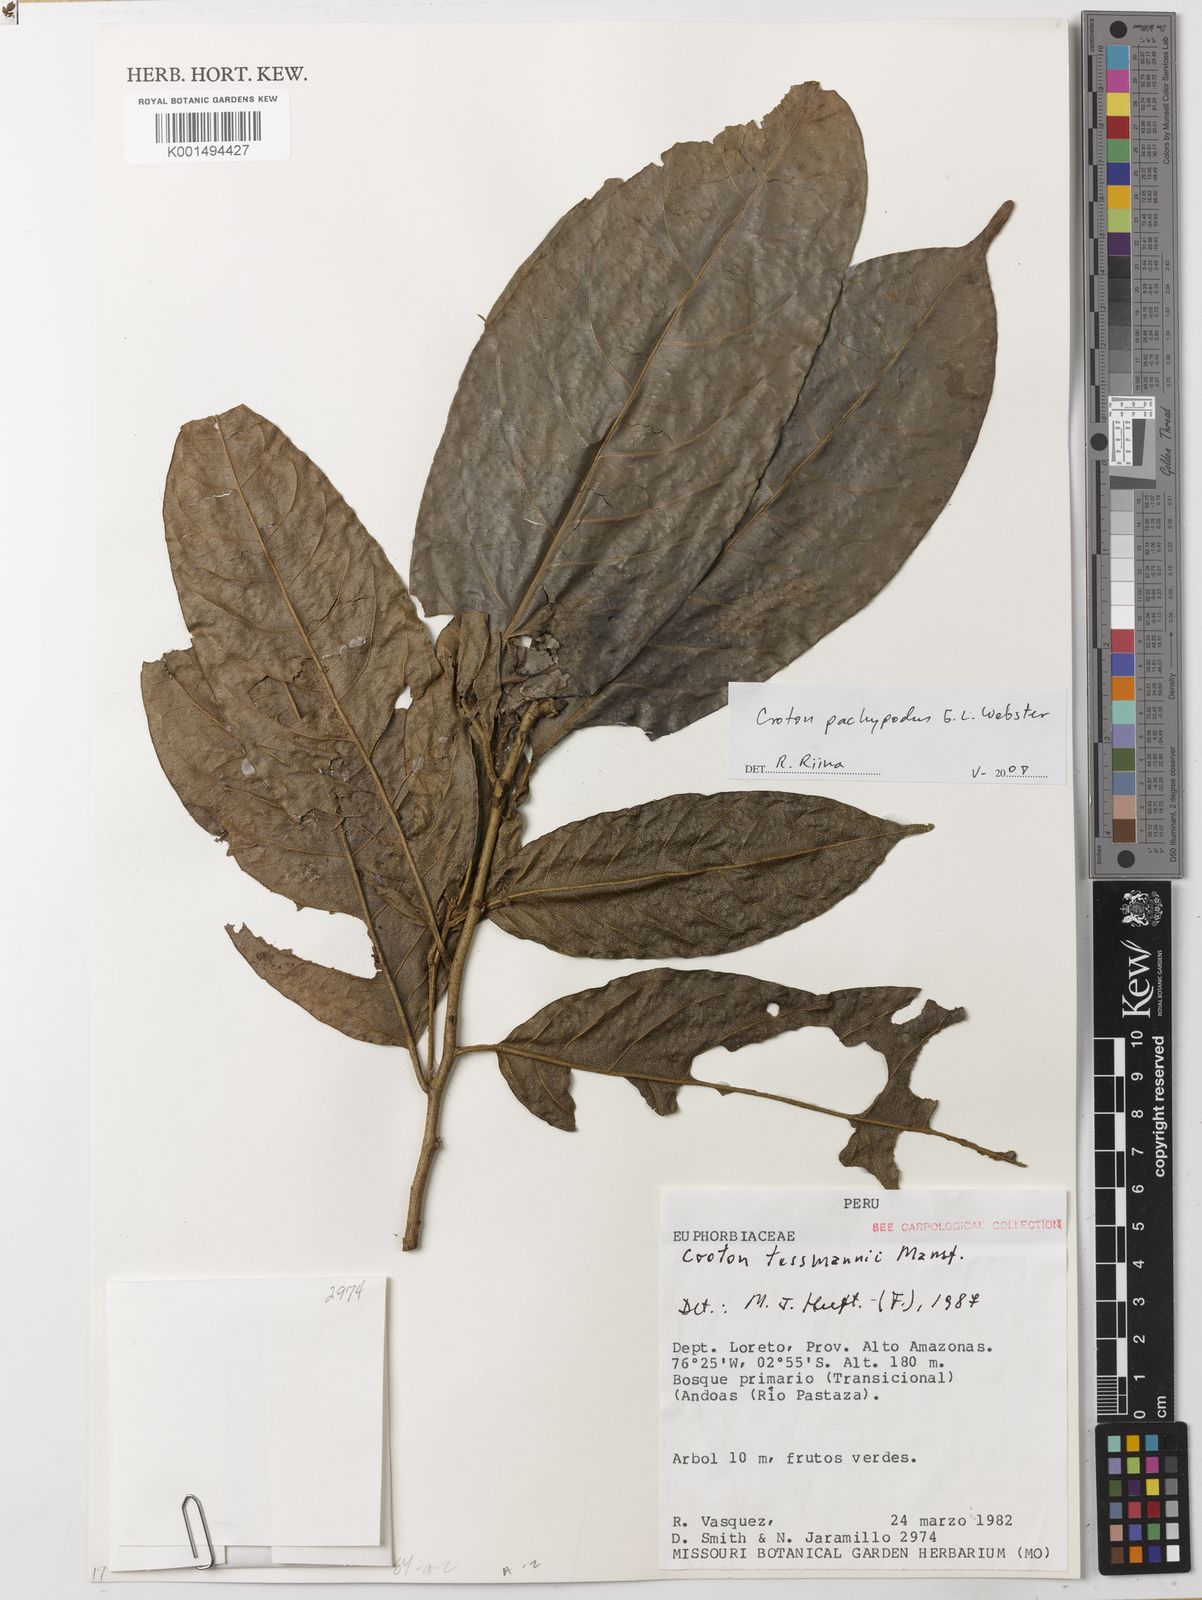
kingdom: Plantae
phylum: Tracheophyta
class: Magnoliopsida
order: Malpighiales
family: Euphorbiaceae
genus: Croton
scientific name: Croton pachypodus
